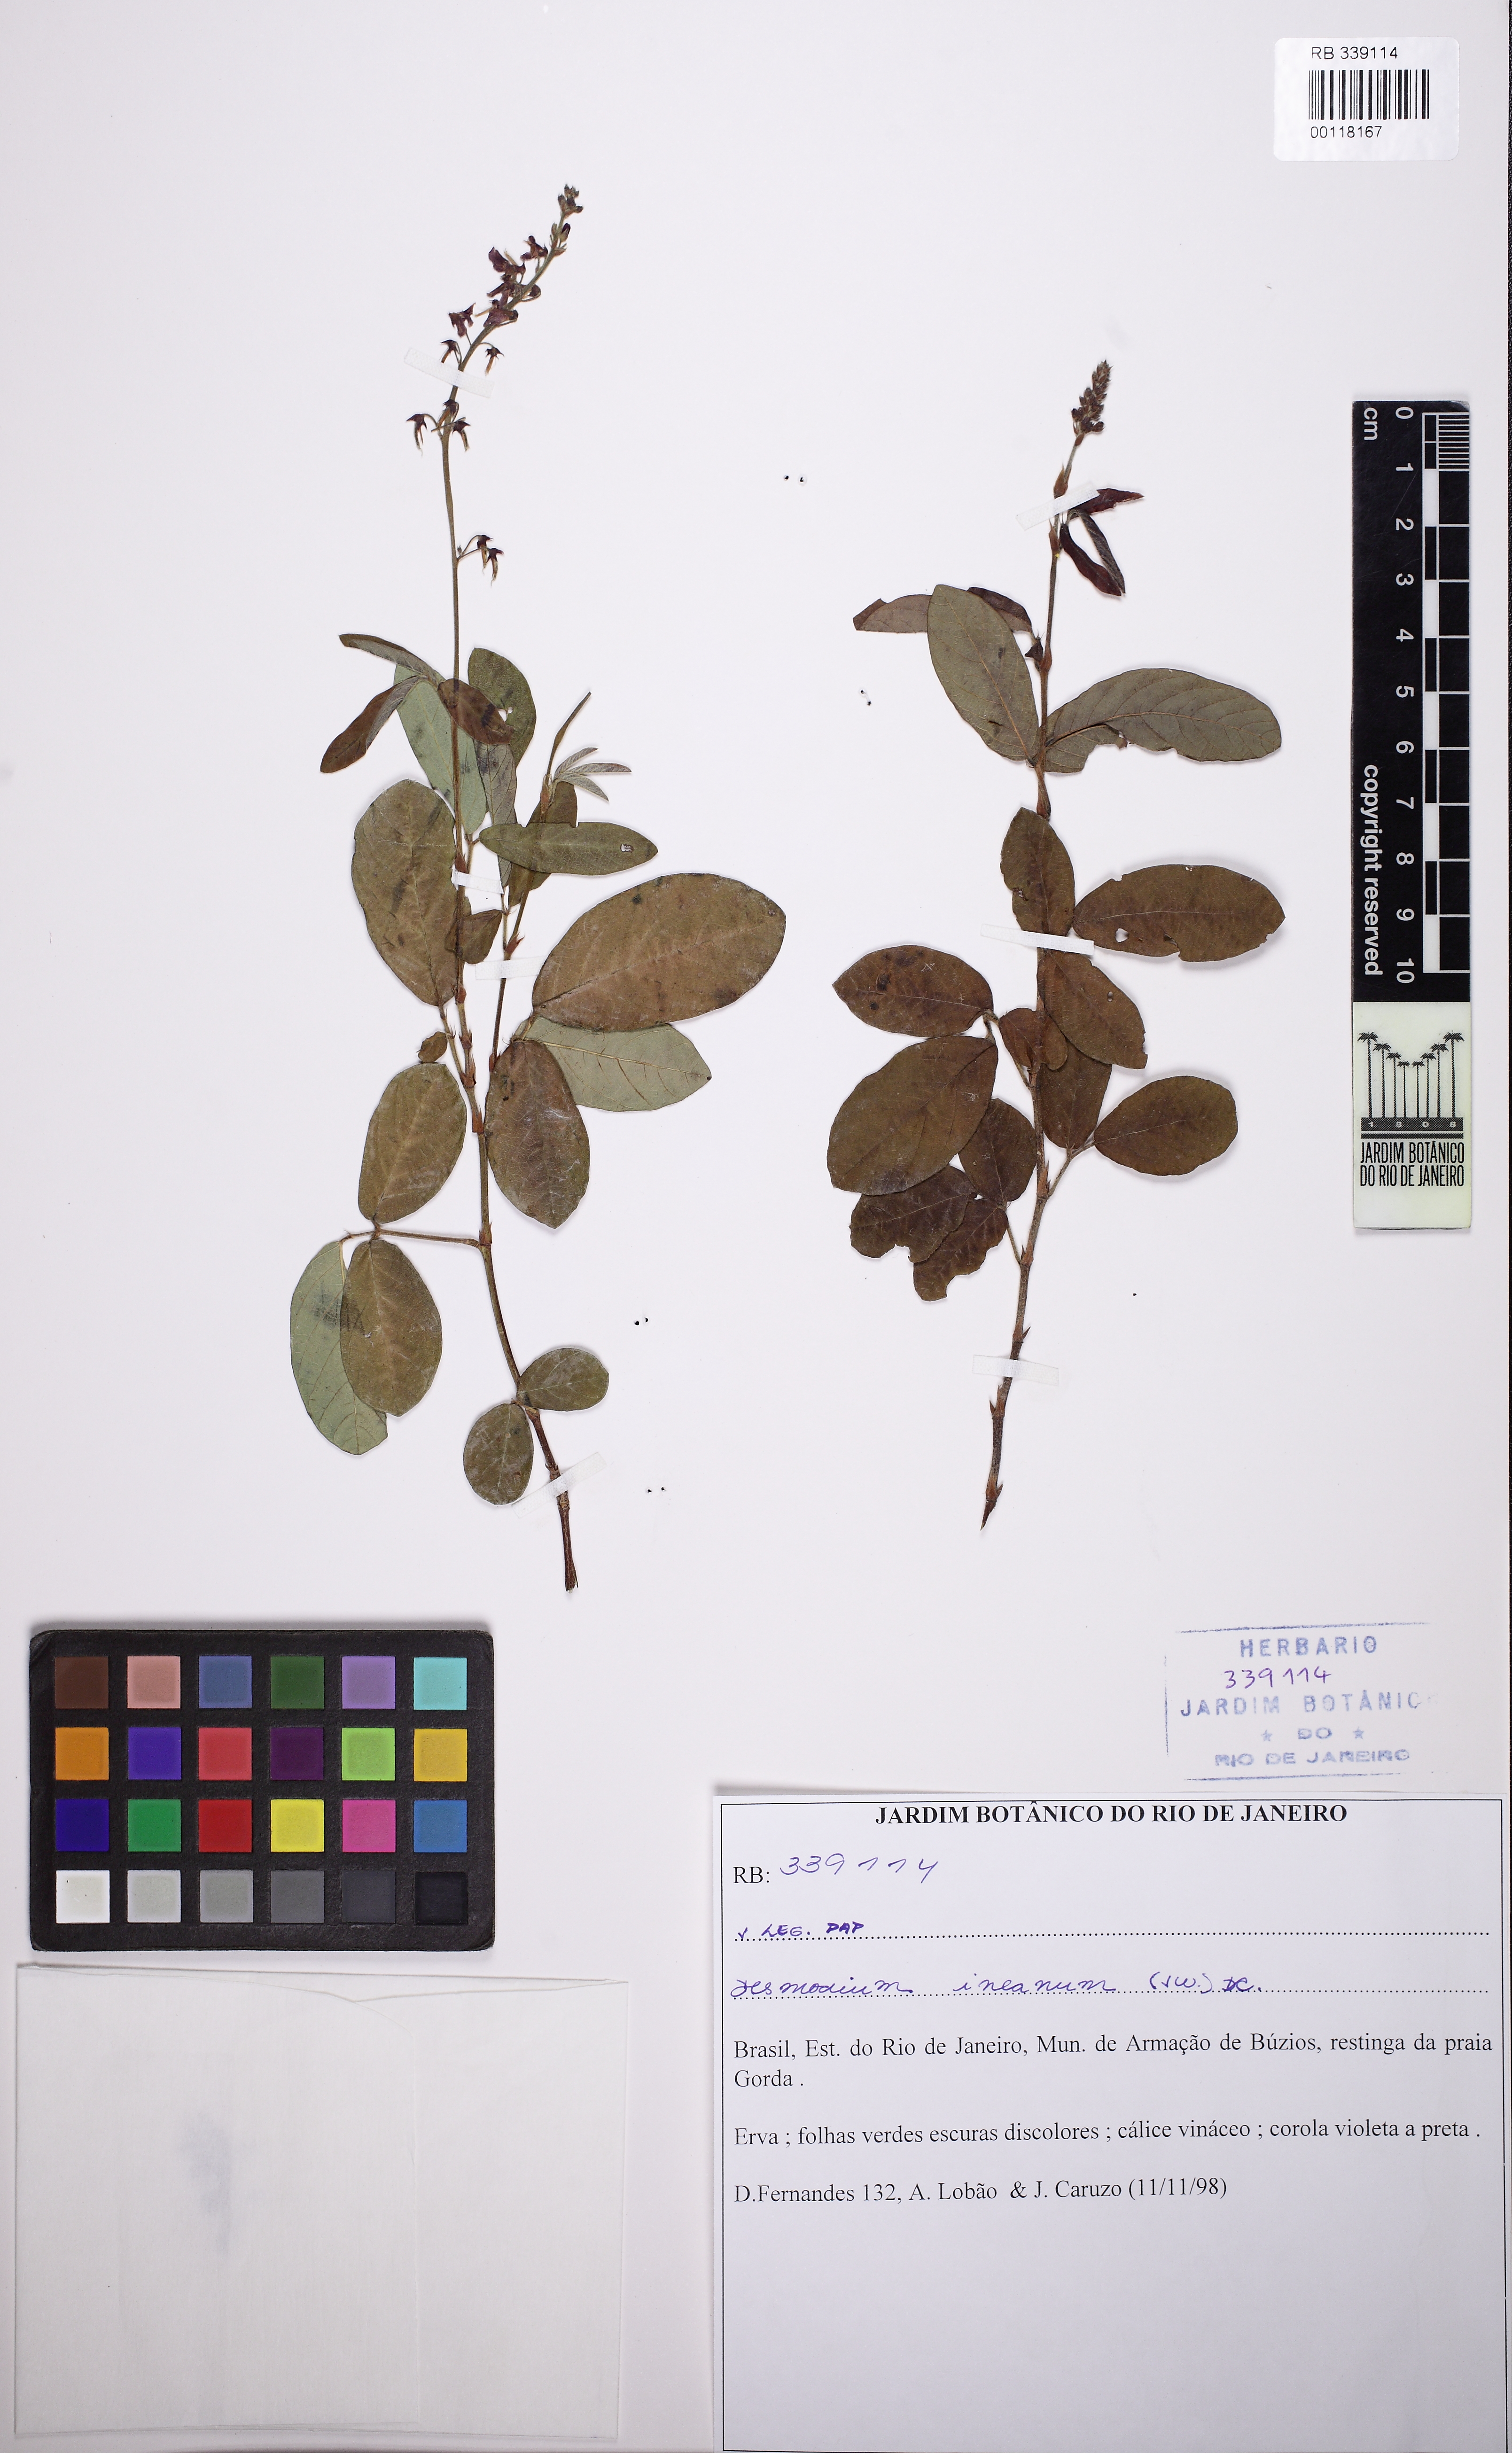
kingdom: Plantae
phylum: Tracheophyta
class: Magnoliopsida
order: Fabales
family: Fabaceae
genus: Desmodium
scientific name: Desmodium incanum
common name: Tickclover
